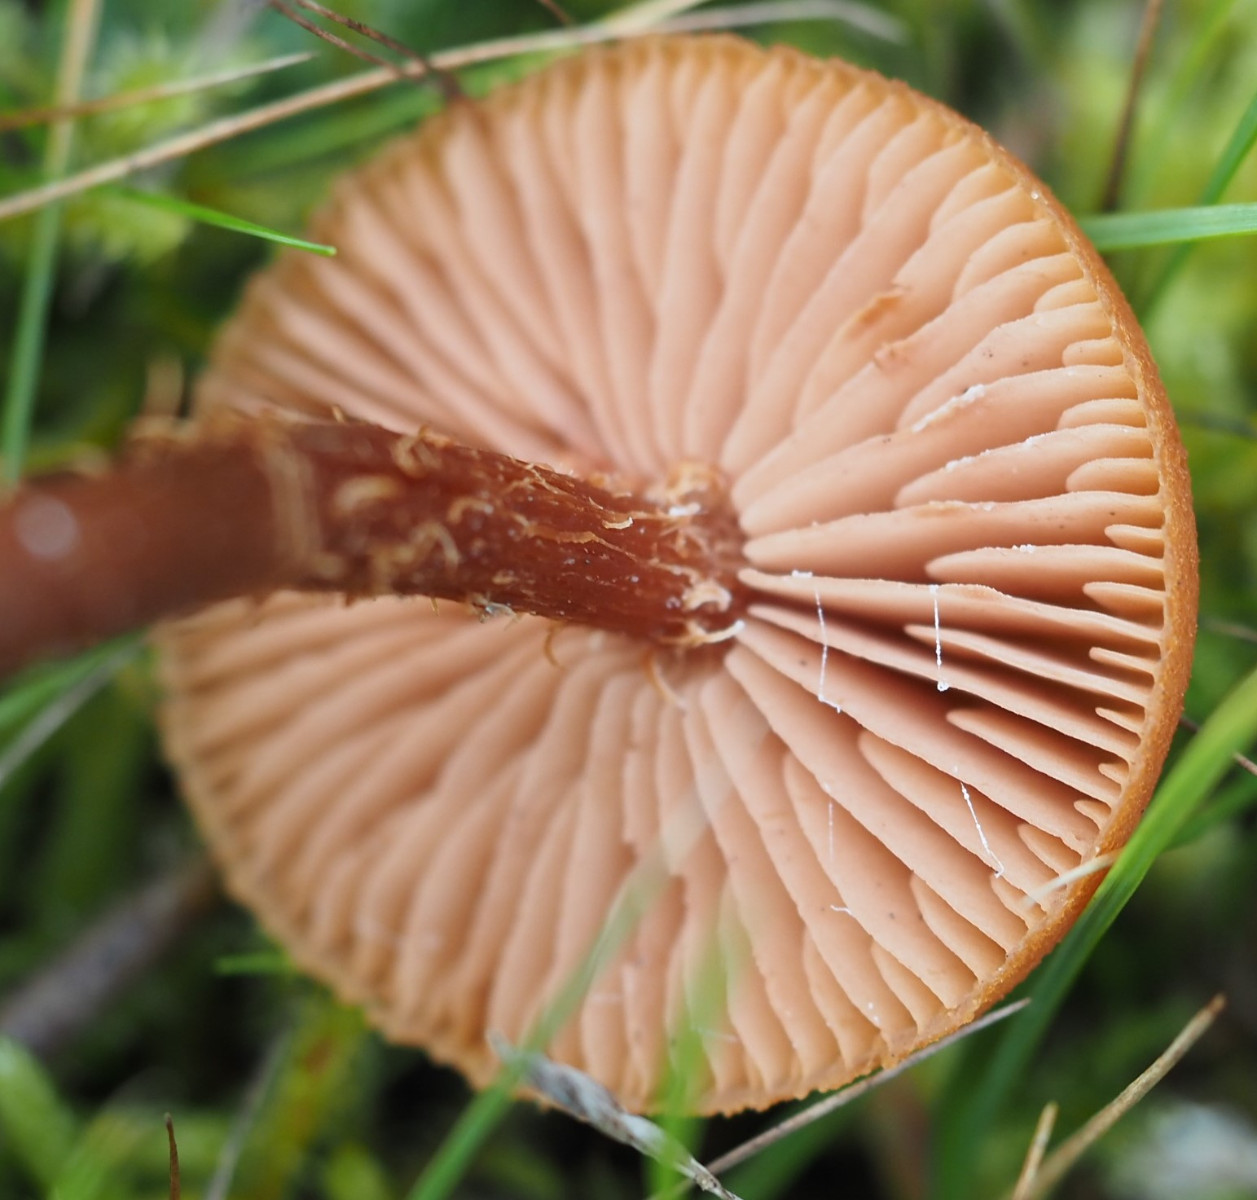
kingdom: Fungi
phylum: Basidiomycota
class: Agaricomycetes
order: Agaricales
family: Hydnangiaceae
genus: Laccaria
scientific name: Laccaria proxima
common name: stor ametysthat
